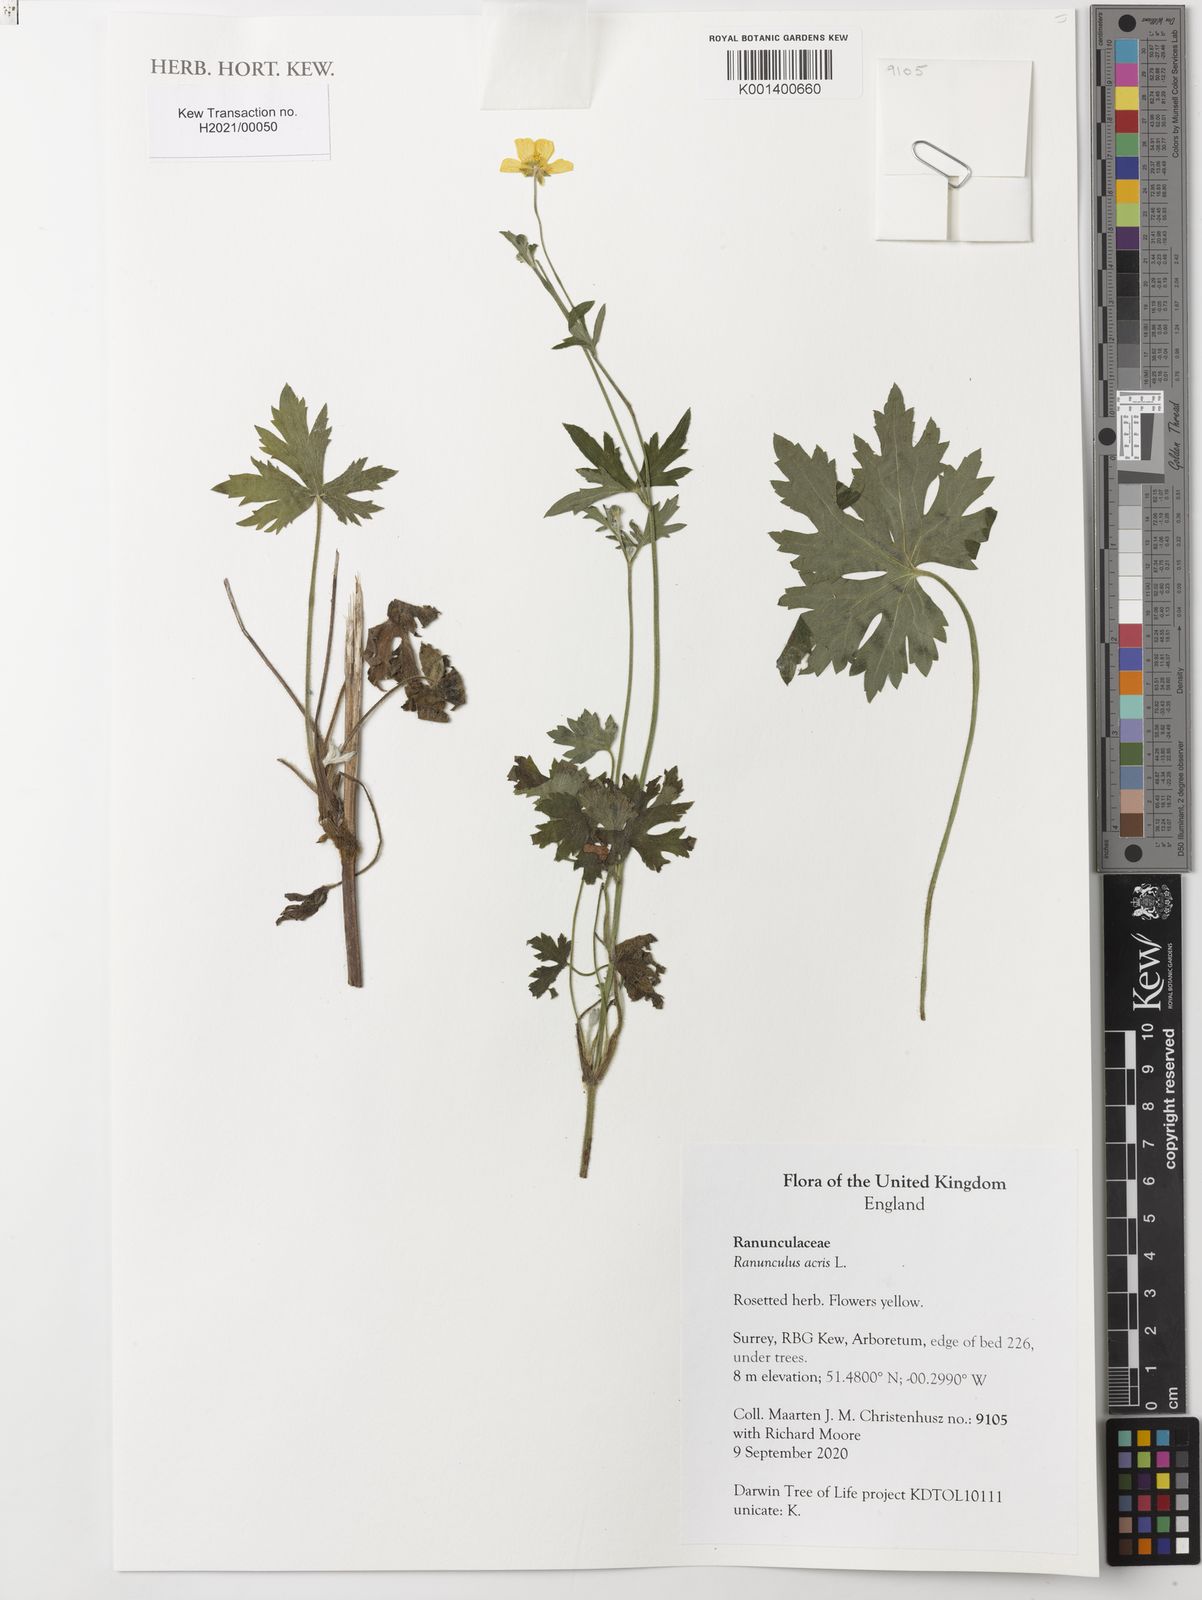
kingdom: Plantae
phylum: Tracheophyta
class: Magnoliopsida
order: Ranunculales
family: Ranunculaceae
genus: Ranunculus
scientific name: Ranunculus acris
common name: Meadow buttercup
